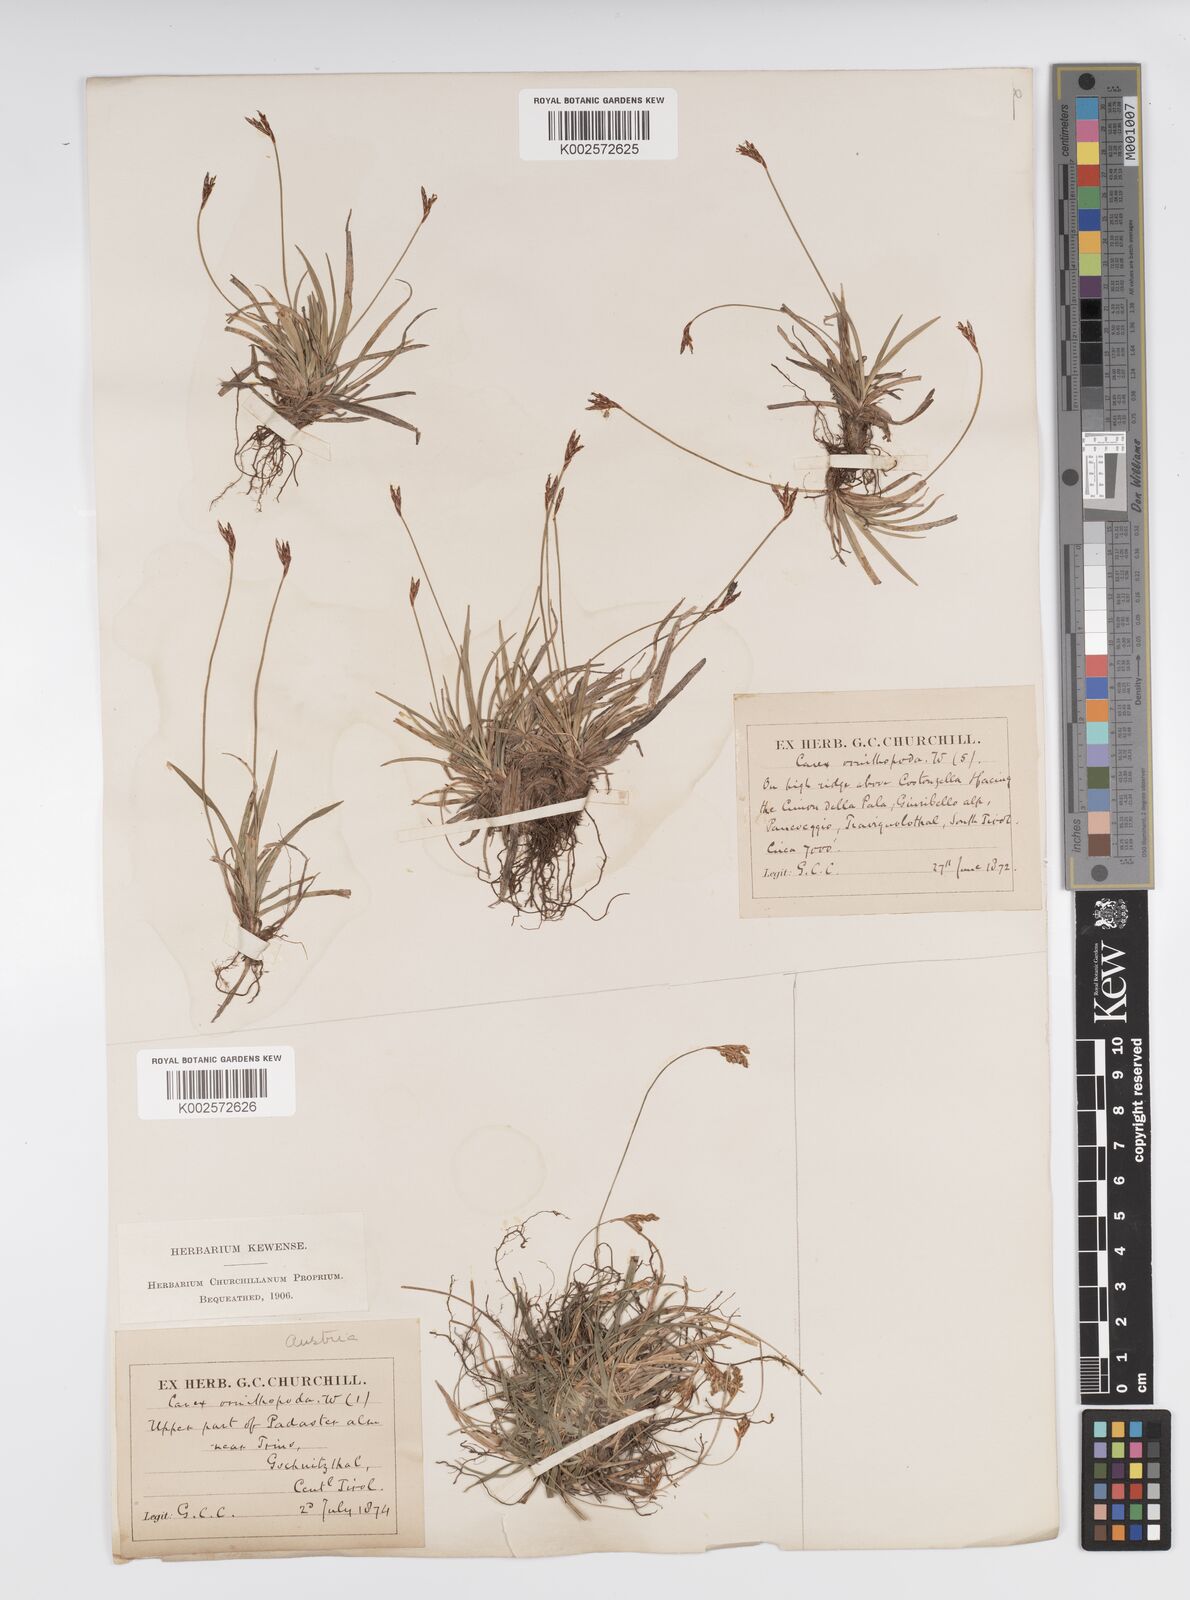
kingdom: Plantae
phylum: Tracheophyta
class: Liliopsida
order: Poales
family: Cyperaceae
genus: Carex
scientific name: Carex ornithopoda
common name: Bird's-foot sedge
